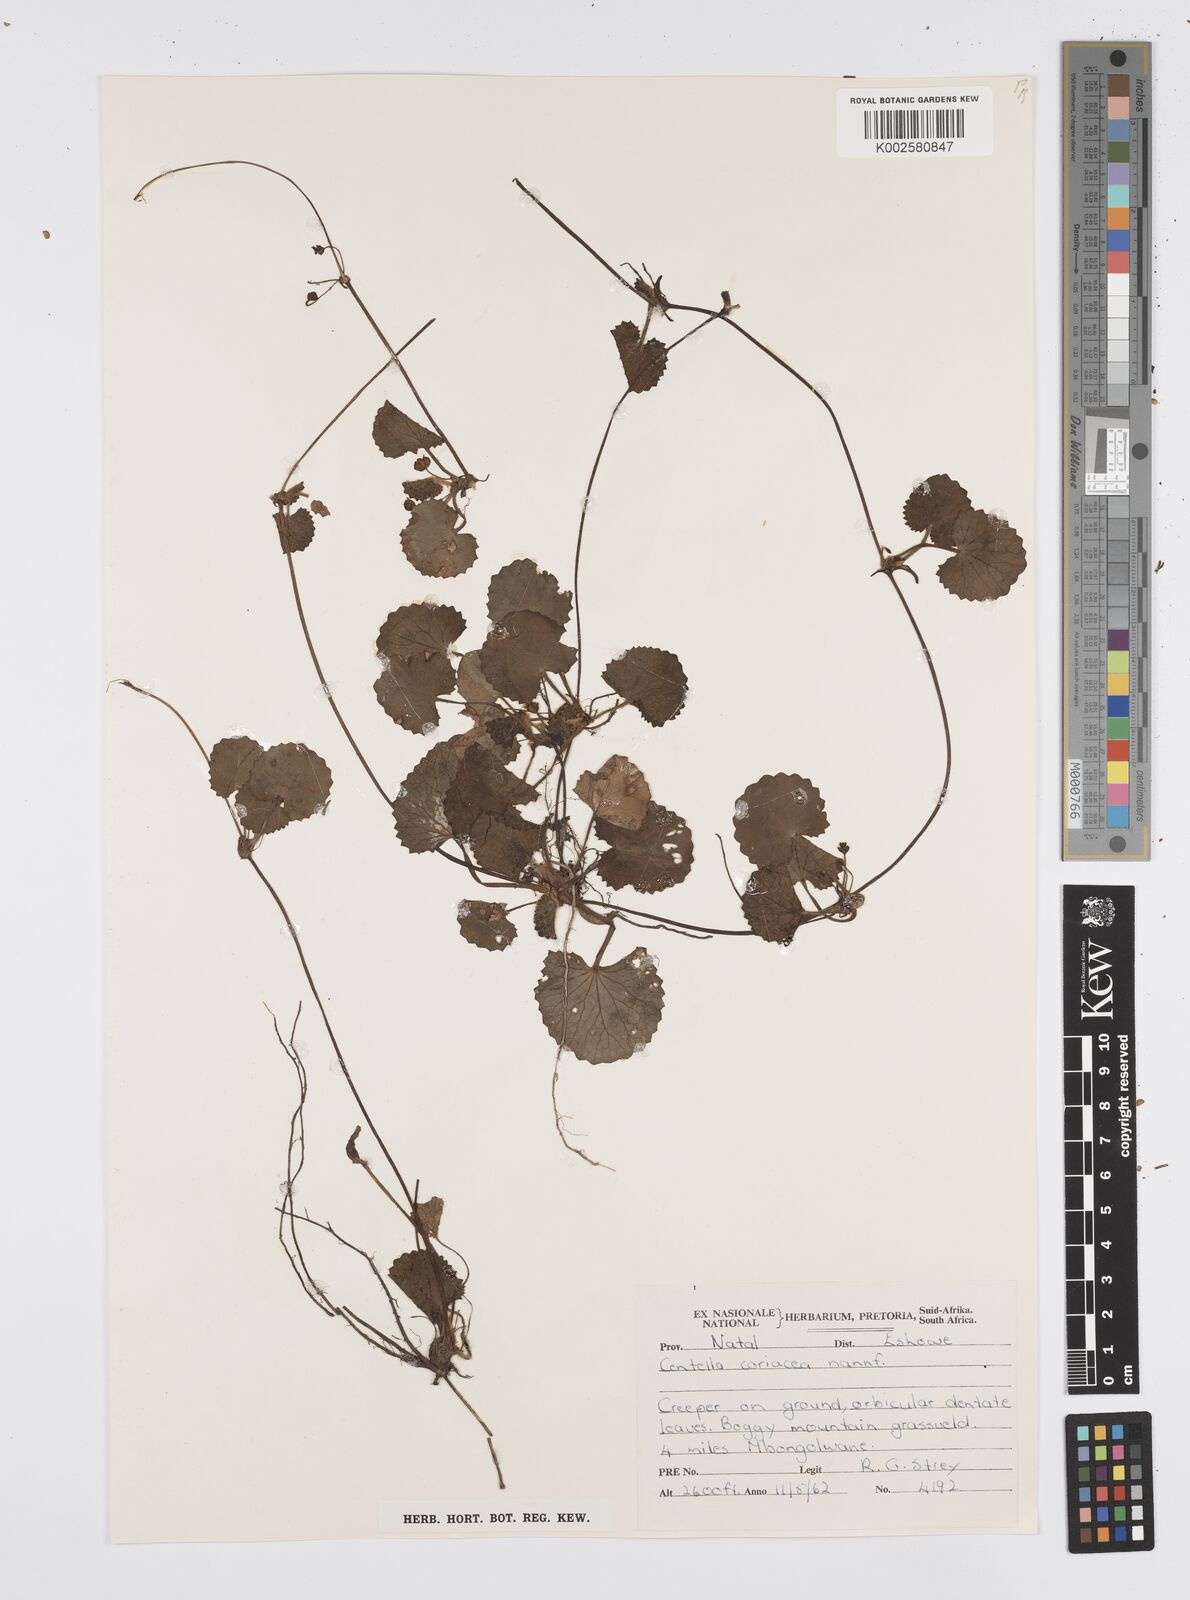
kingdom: Plantae
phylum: Tracheophyta
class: Magnoliopsida
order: Apiales
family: Apiaceae
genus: Centella
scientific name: Centella coriacea
